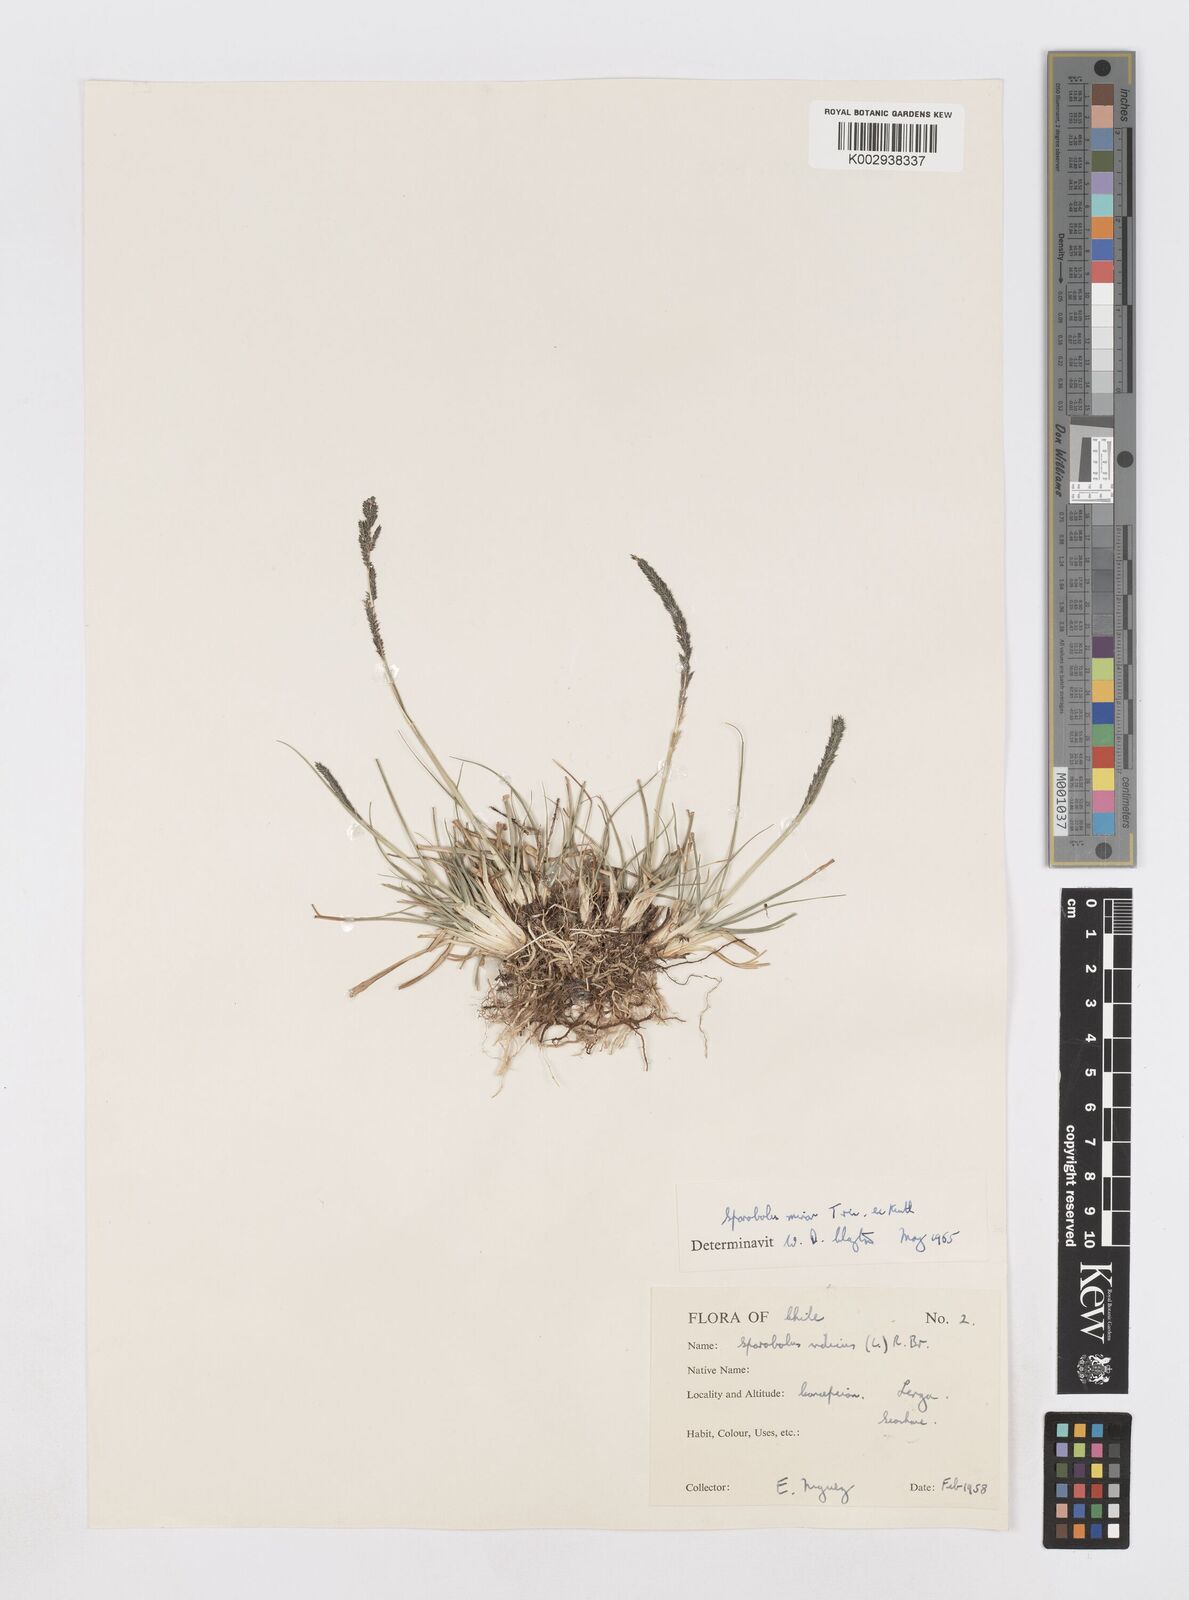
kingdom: Plantae
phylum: Tracheophyta
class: Liliopsida
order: Poales
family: Poaceae
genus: Sporobolus
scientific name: Sporobolus minor
